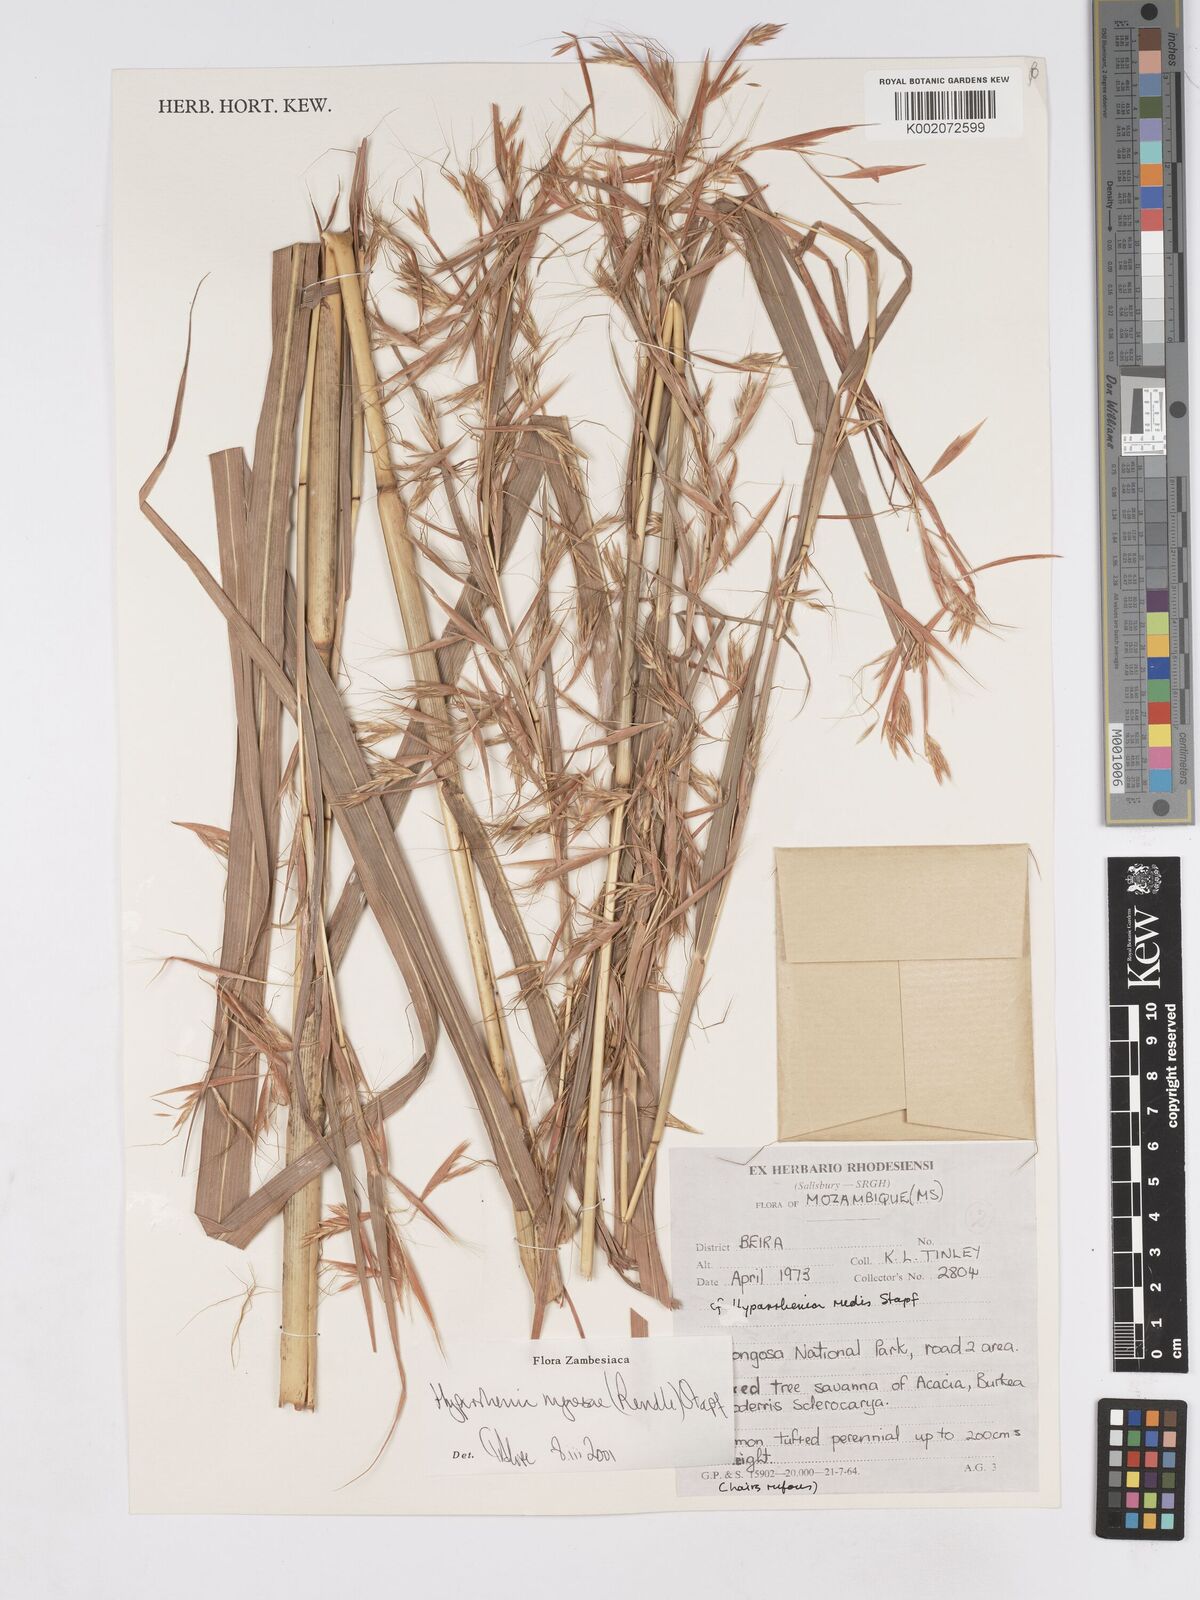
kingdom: Plantae
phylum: Tracheophyta
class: Liliopsida
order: Poales
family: Poaceae
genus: Hyparrhenia
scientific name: Hyparrhenia nyassae
